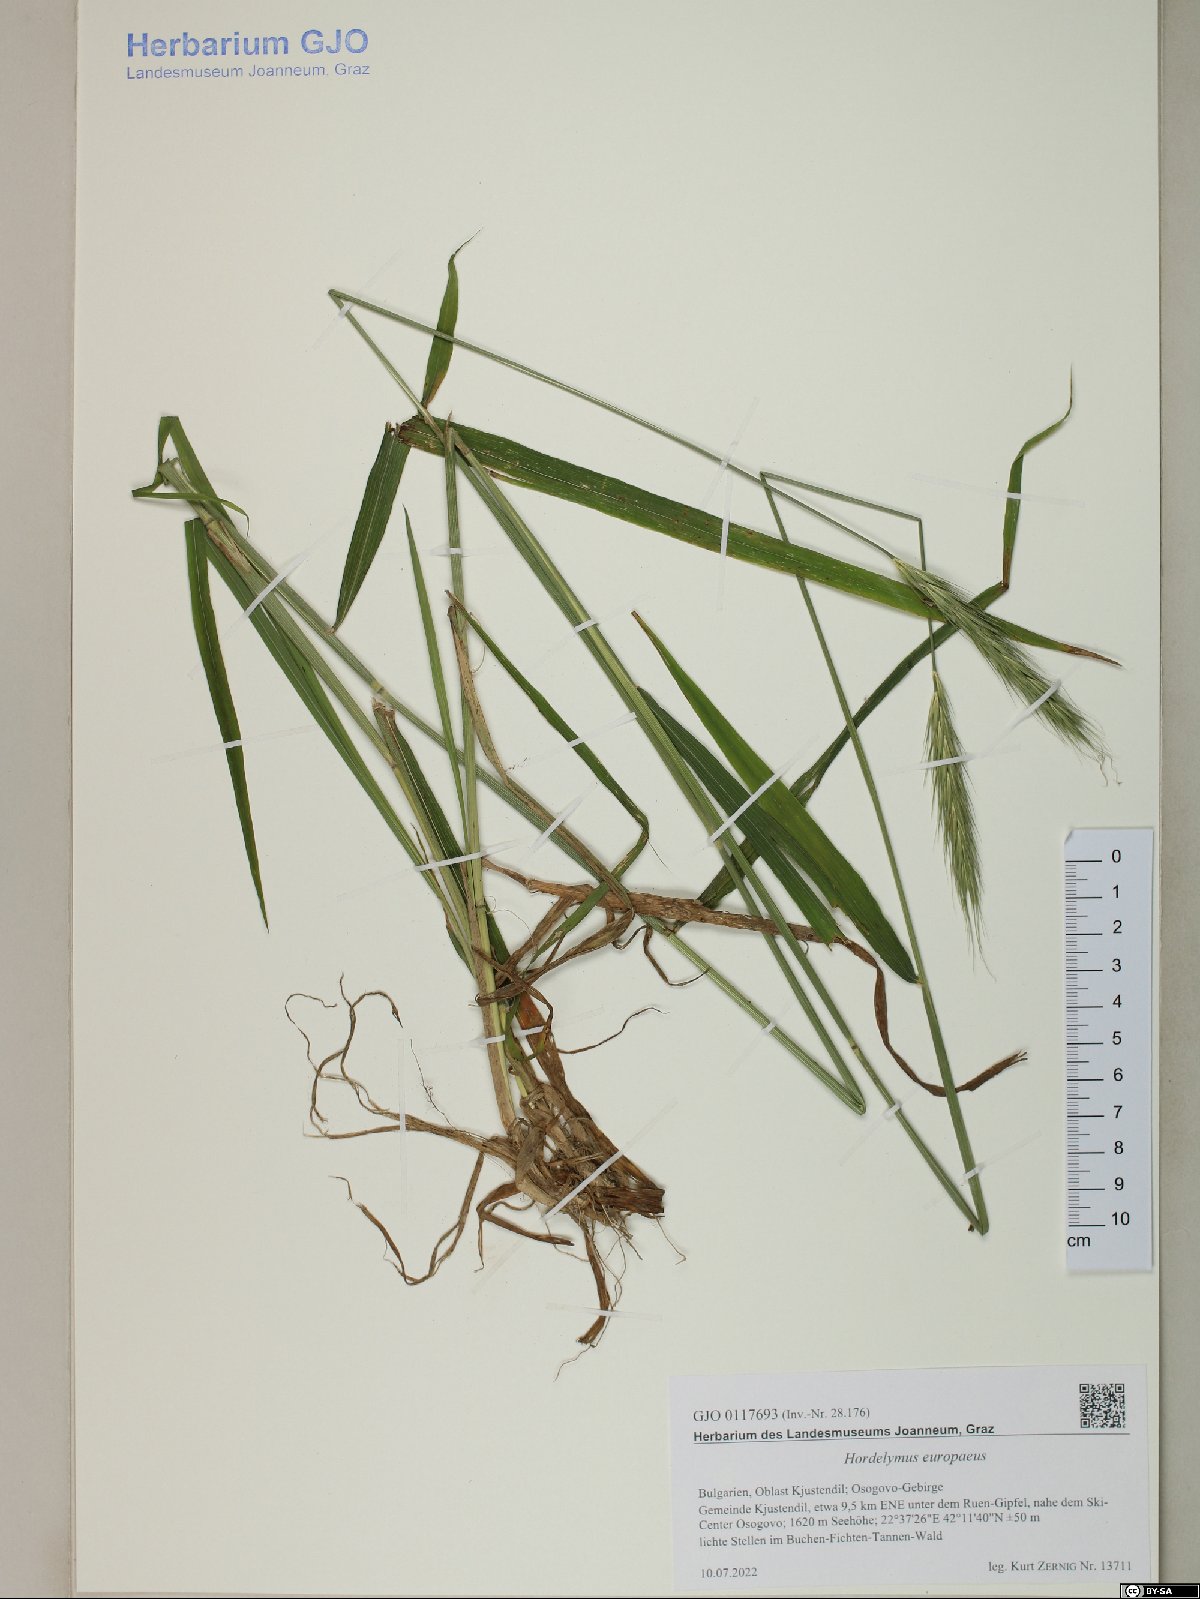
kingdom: Plantae
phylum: Tracheophyta
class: Liliopsida
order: Poales
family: Poaceae
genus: Hordelymus
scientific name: Hordelymus europaeus
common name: Wood-barley
